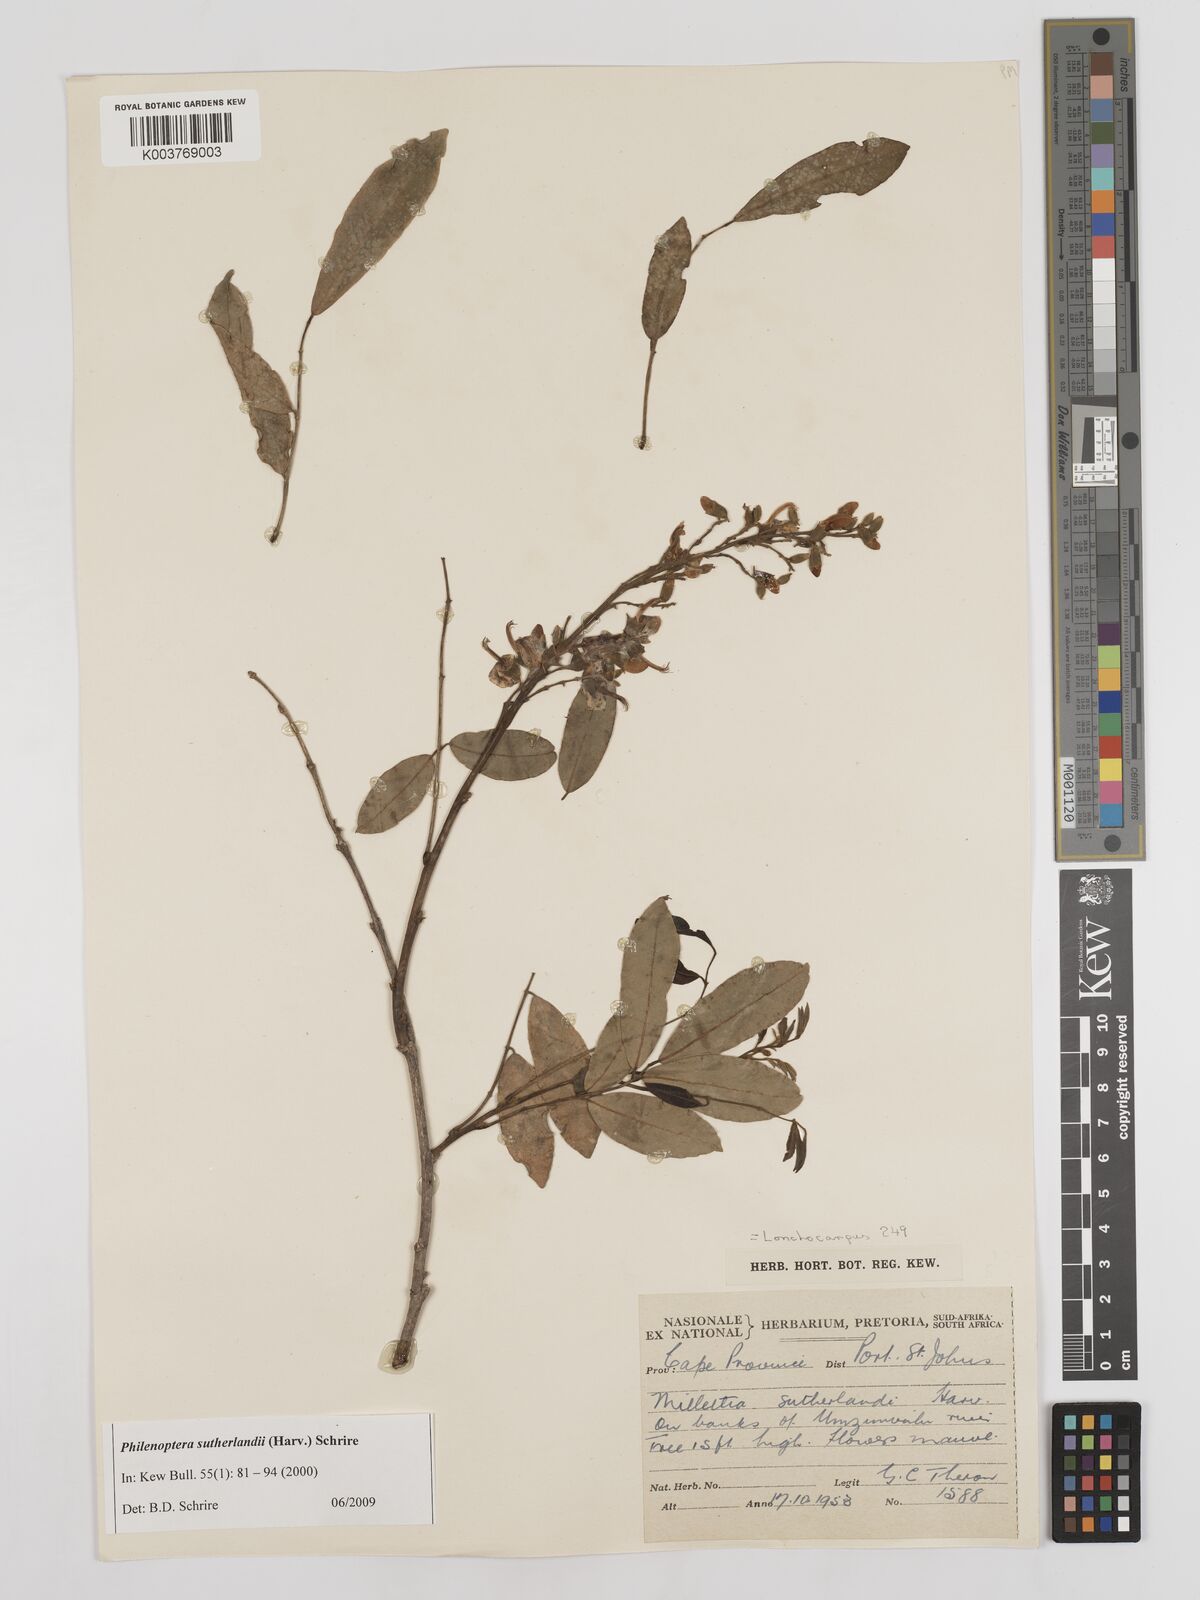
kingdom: Plantae
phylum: Tracheophyta
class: Magnoliopsida
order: Fabales
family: Fabaceae
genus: Philenoptera
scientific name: Philenoptera sutherlandii
